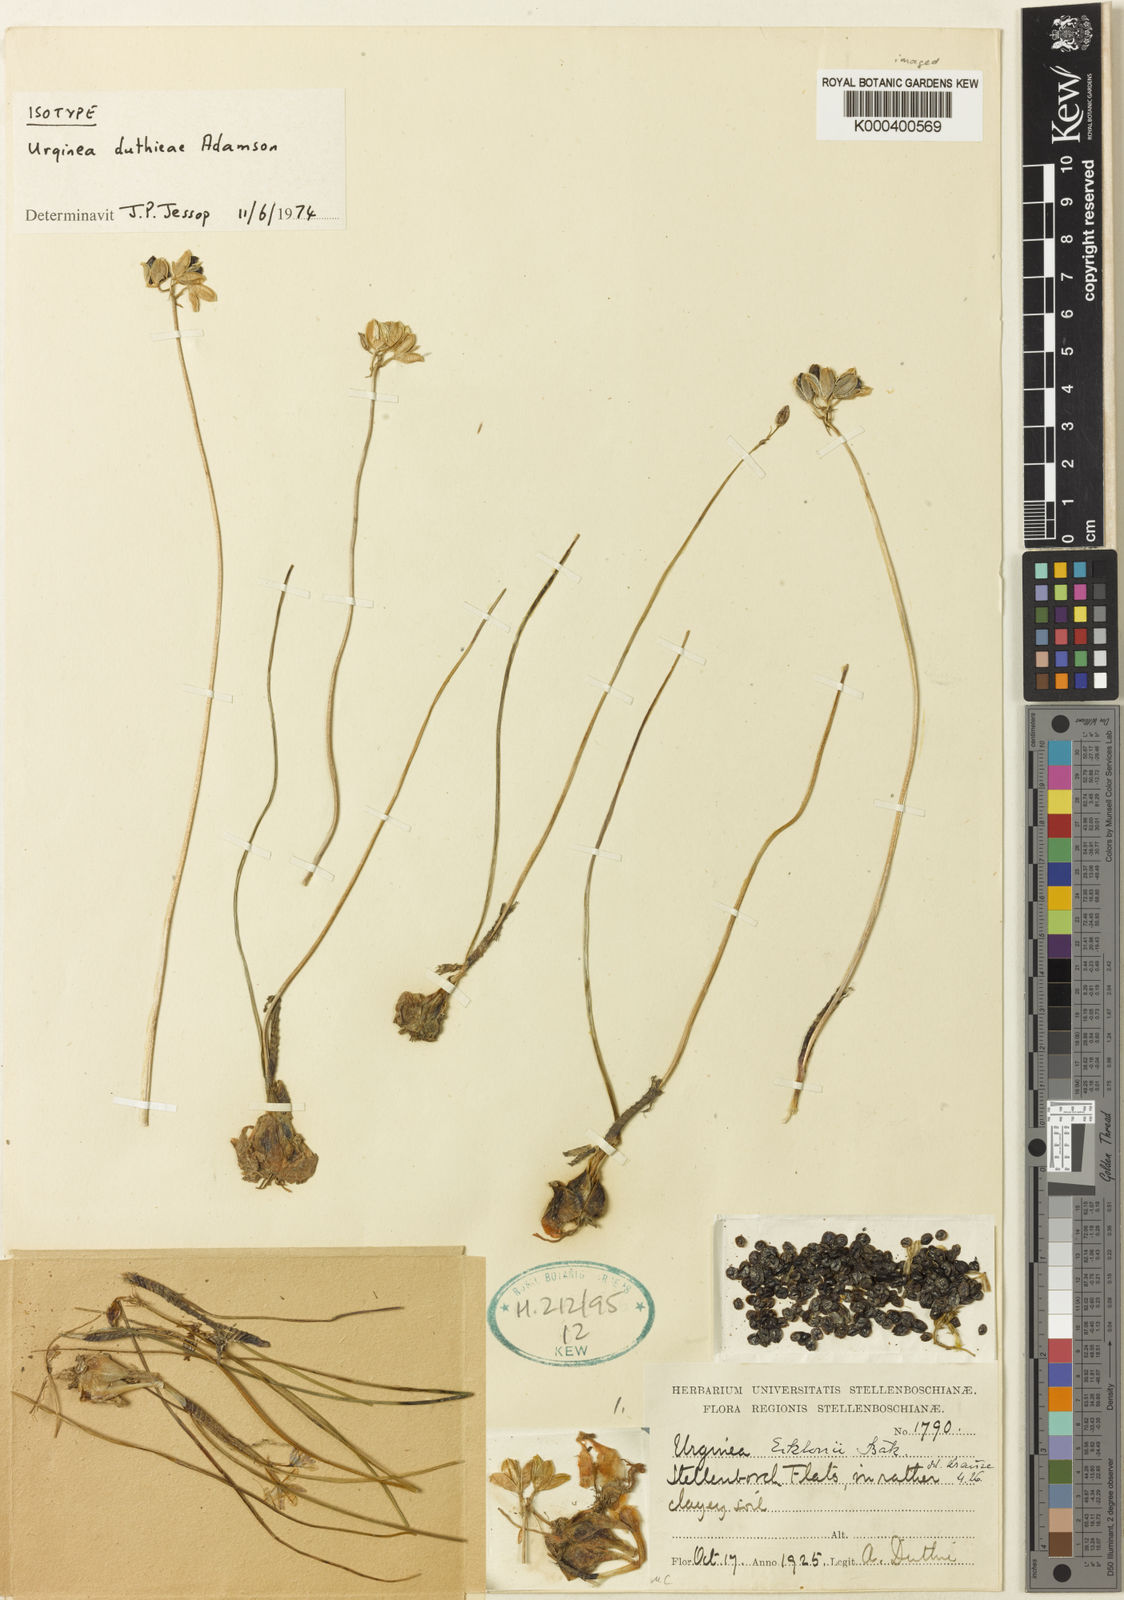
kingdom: Plantae
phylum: Tracheophyta
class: Liliopsida
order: Asparagales
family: Asparagaceae
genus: Drimia
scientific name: Drimia Urginea unifolia
